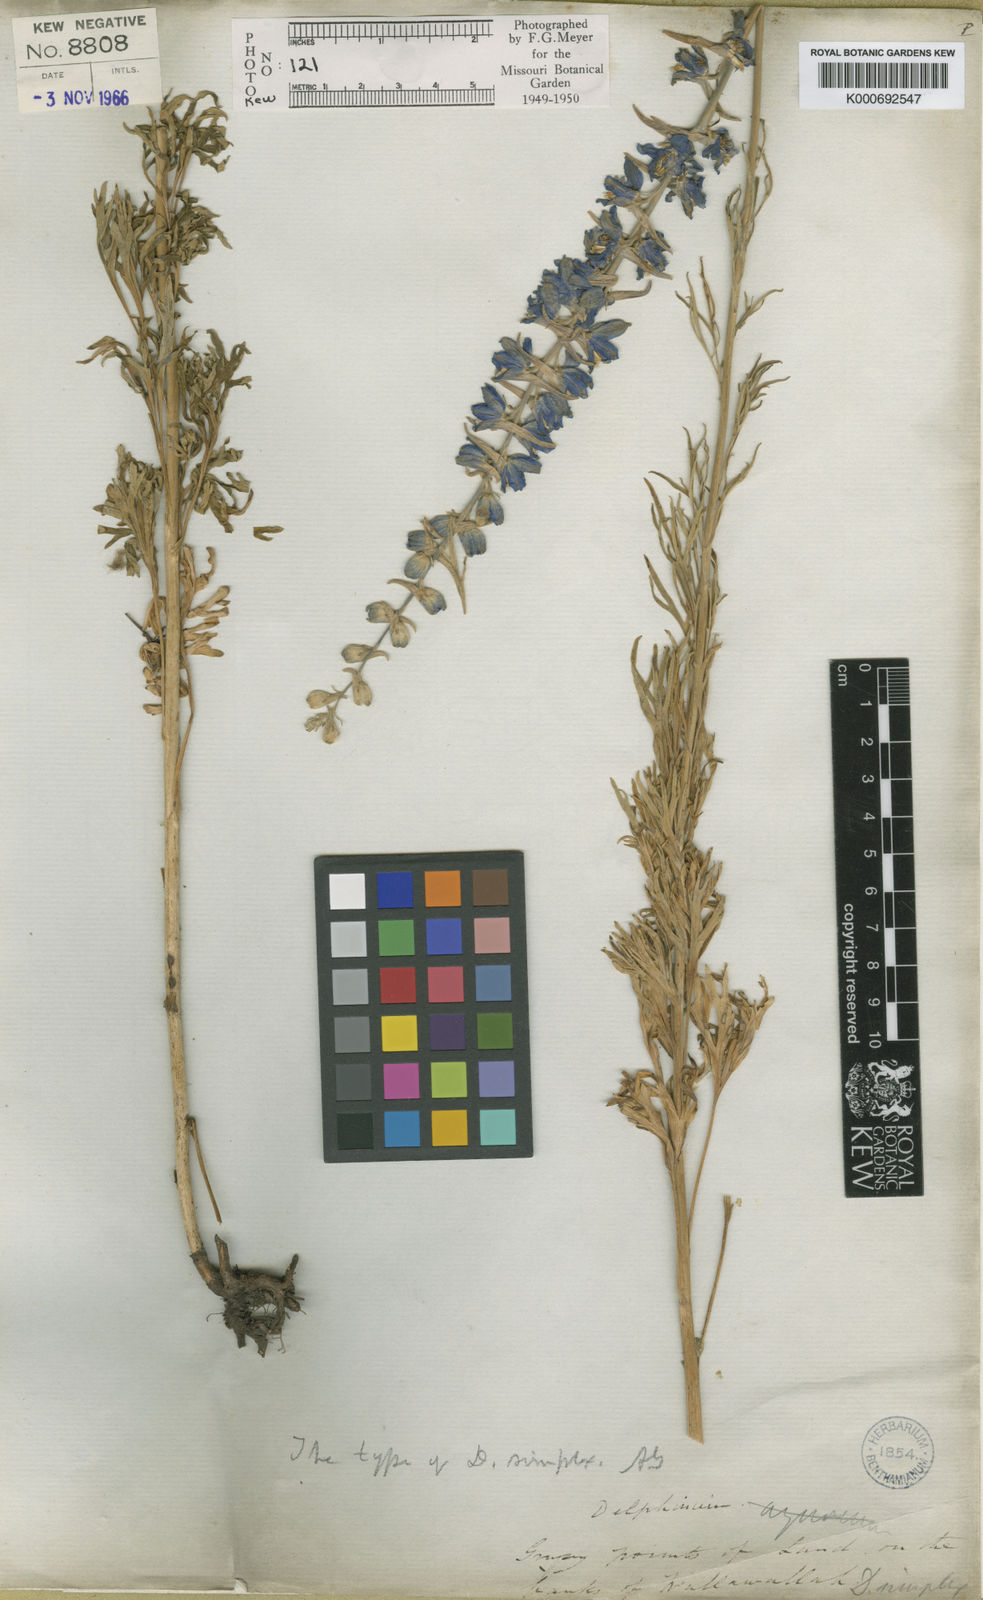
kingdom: Plantae
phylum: Tracheophyta
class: Magnoliopsida
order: Ranunculales
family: Ranunculaceae
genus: Delphinium
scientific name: Delphinium
